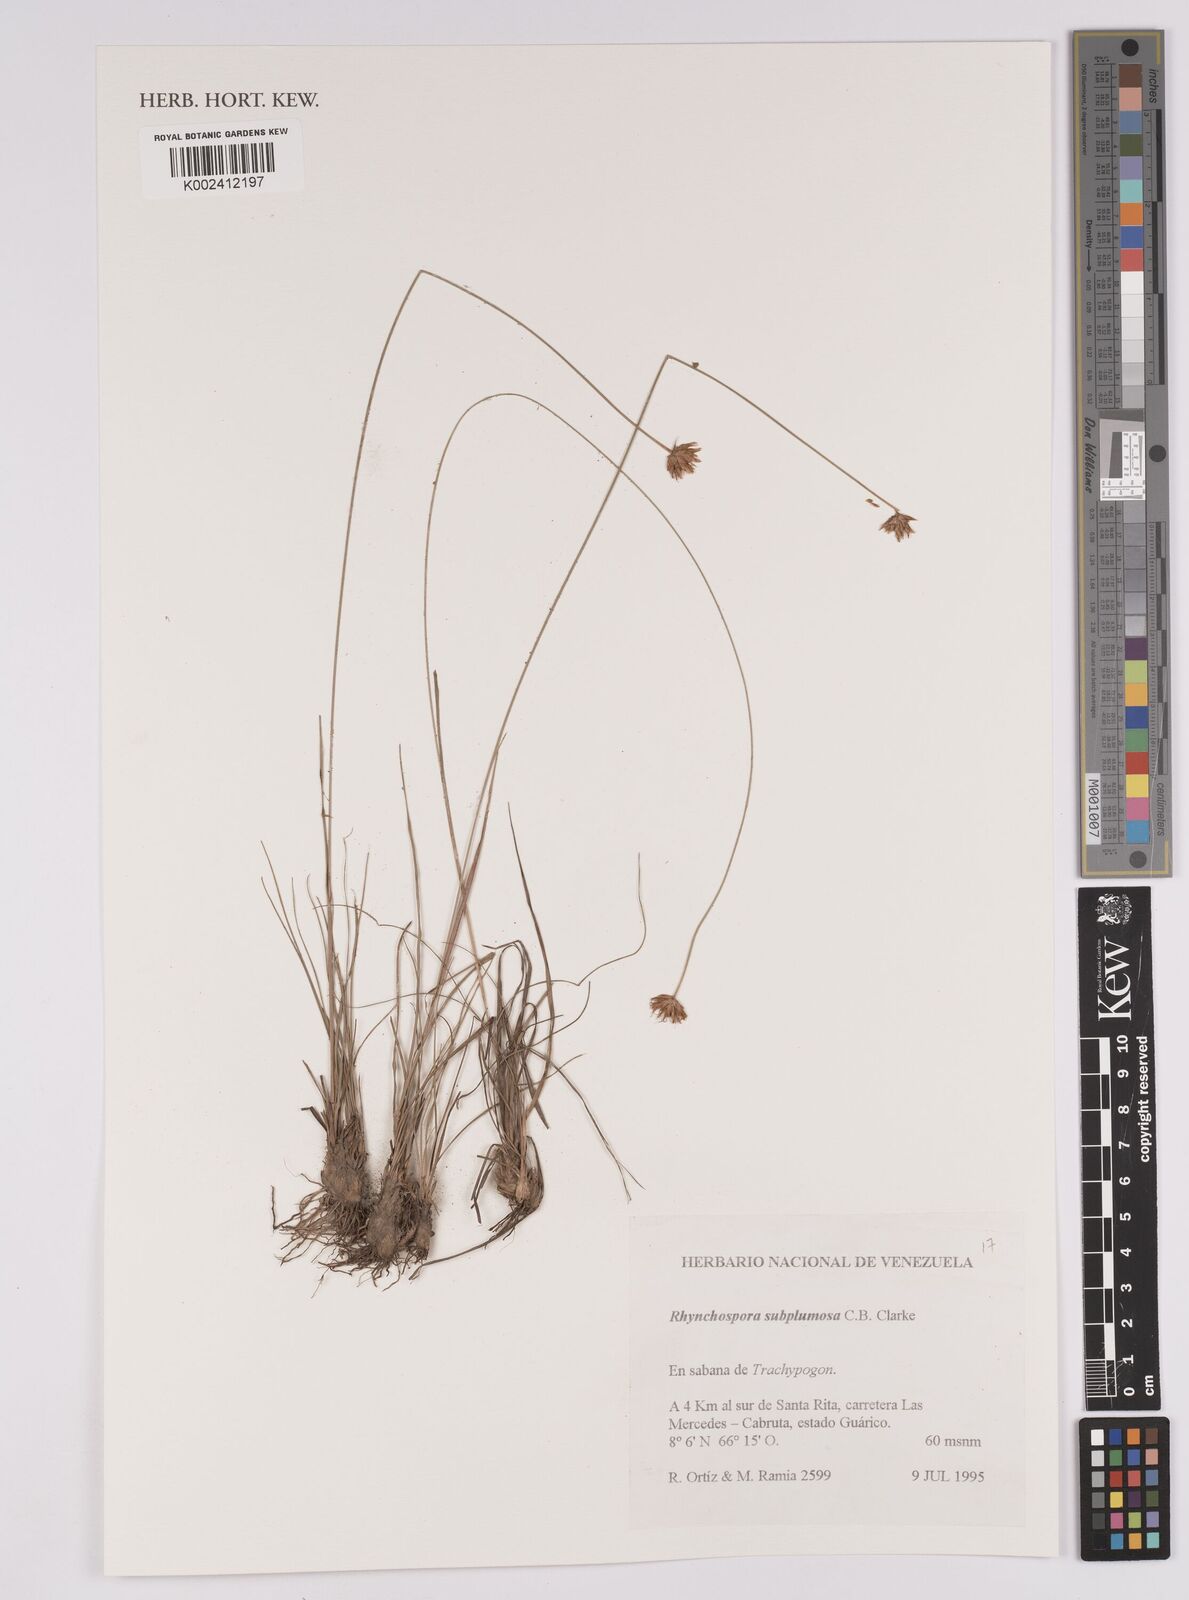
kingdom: Plantae
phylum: Tracheophyta
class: Liliopsida
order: Poales
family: Cyperaceae
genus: Rhynchospora
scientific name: Rhynchospora subplumosa
